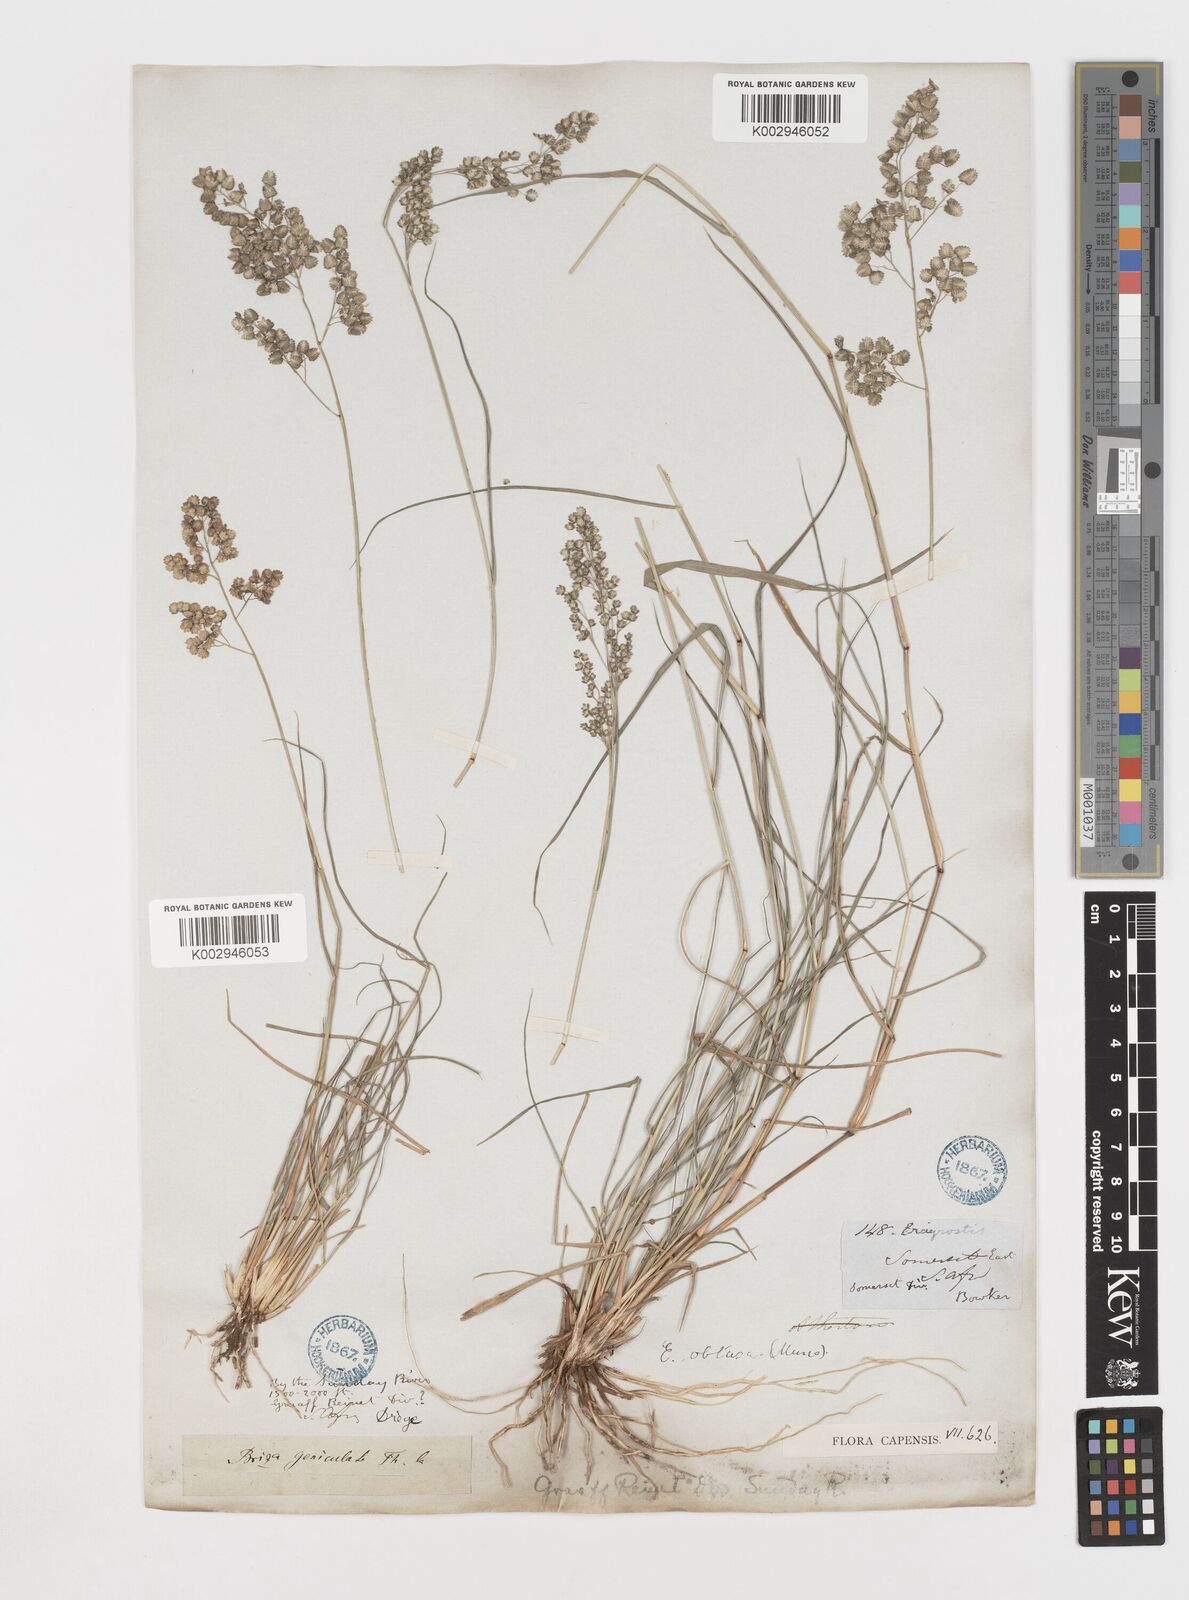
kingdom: Plantae
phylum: Tracheophyta
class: Liliopsida
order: Poales
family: Poaceae
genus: Eragrostis
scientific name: Eragrostis obtusa
